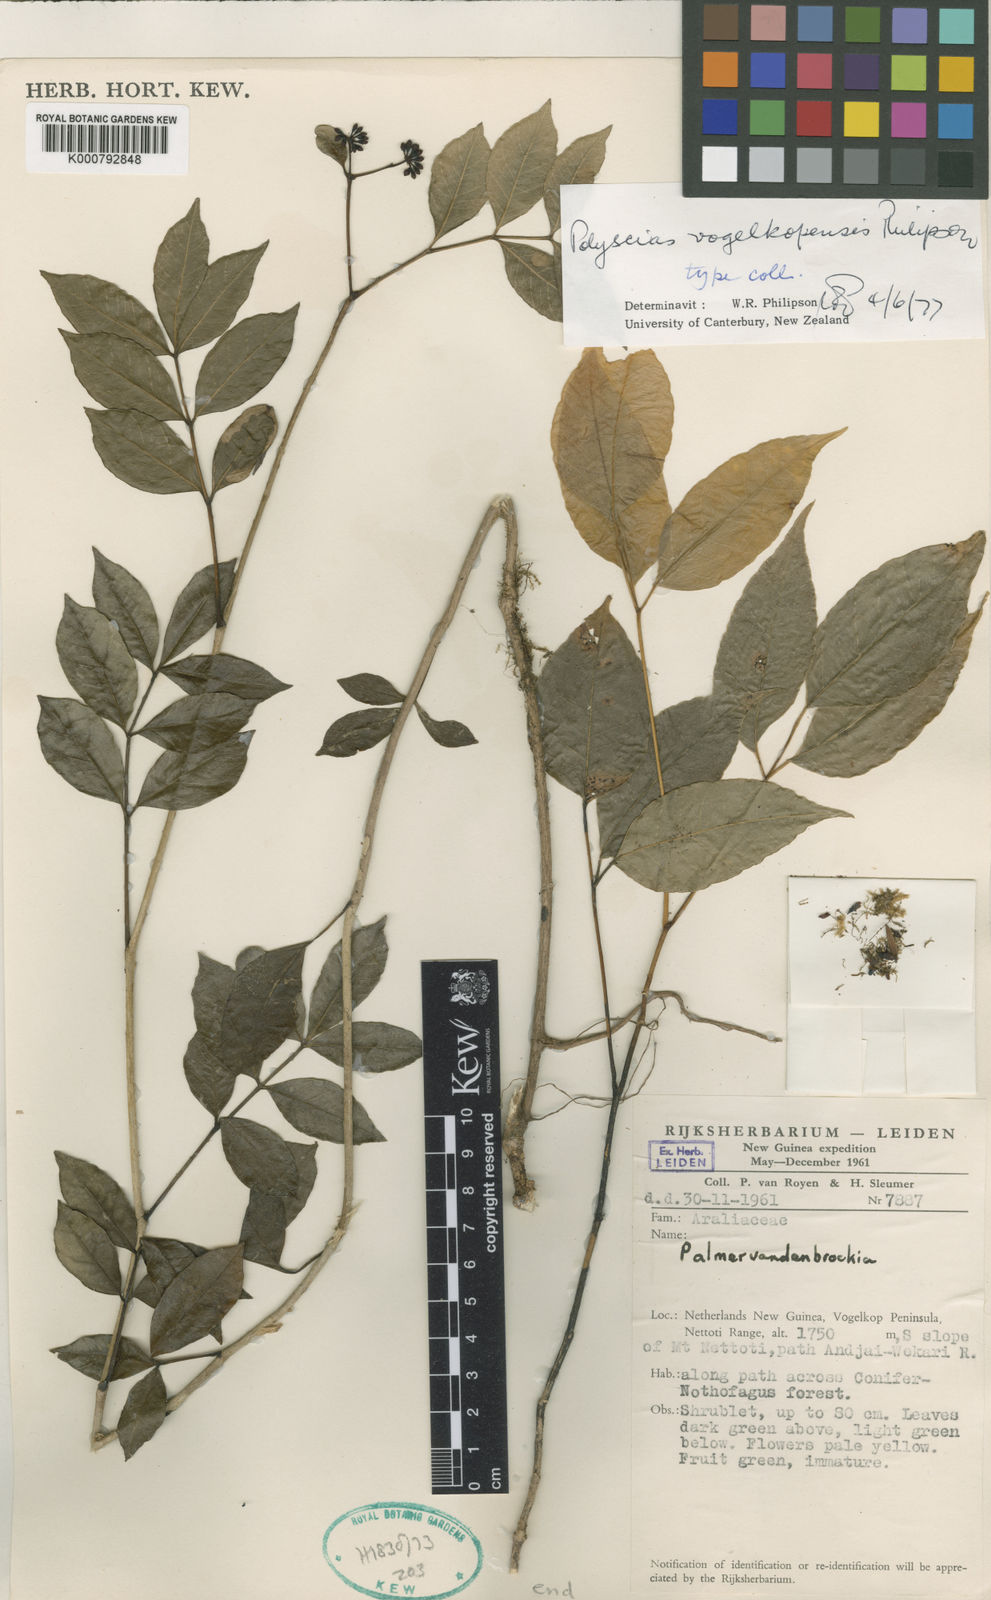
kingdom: Plantae
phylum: Tracheophyta
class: Magnoliopsida
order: Apiales
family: Araliaceae
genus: Polyscias
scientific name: Polyscias vogelkopensis
